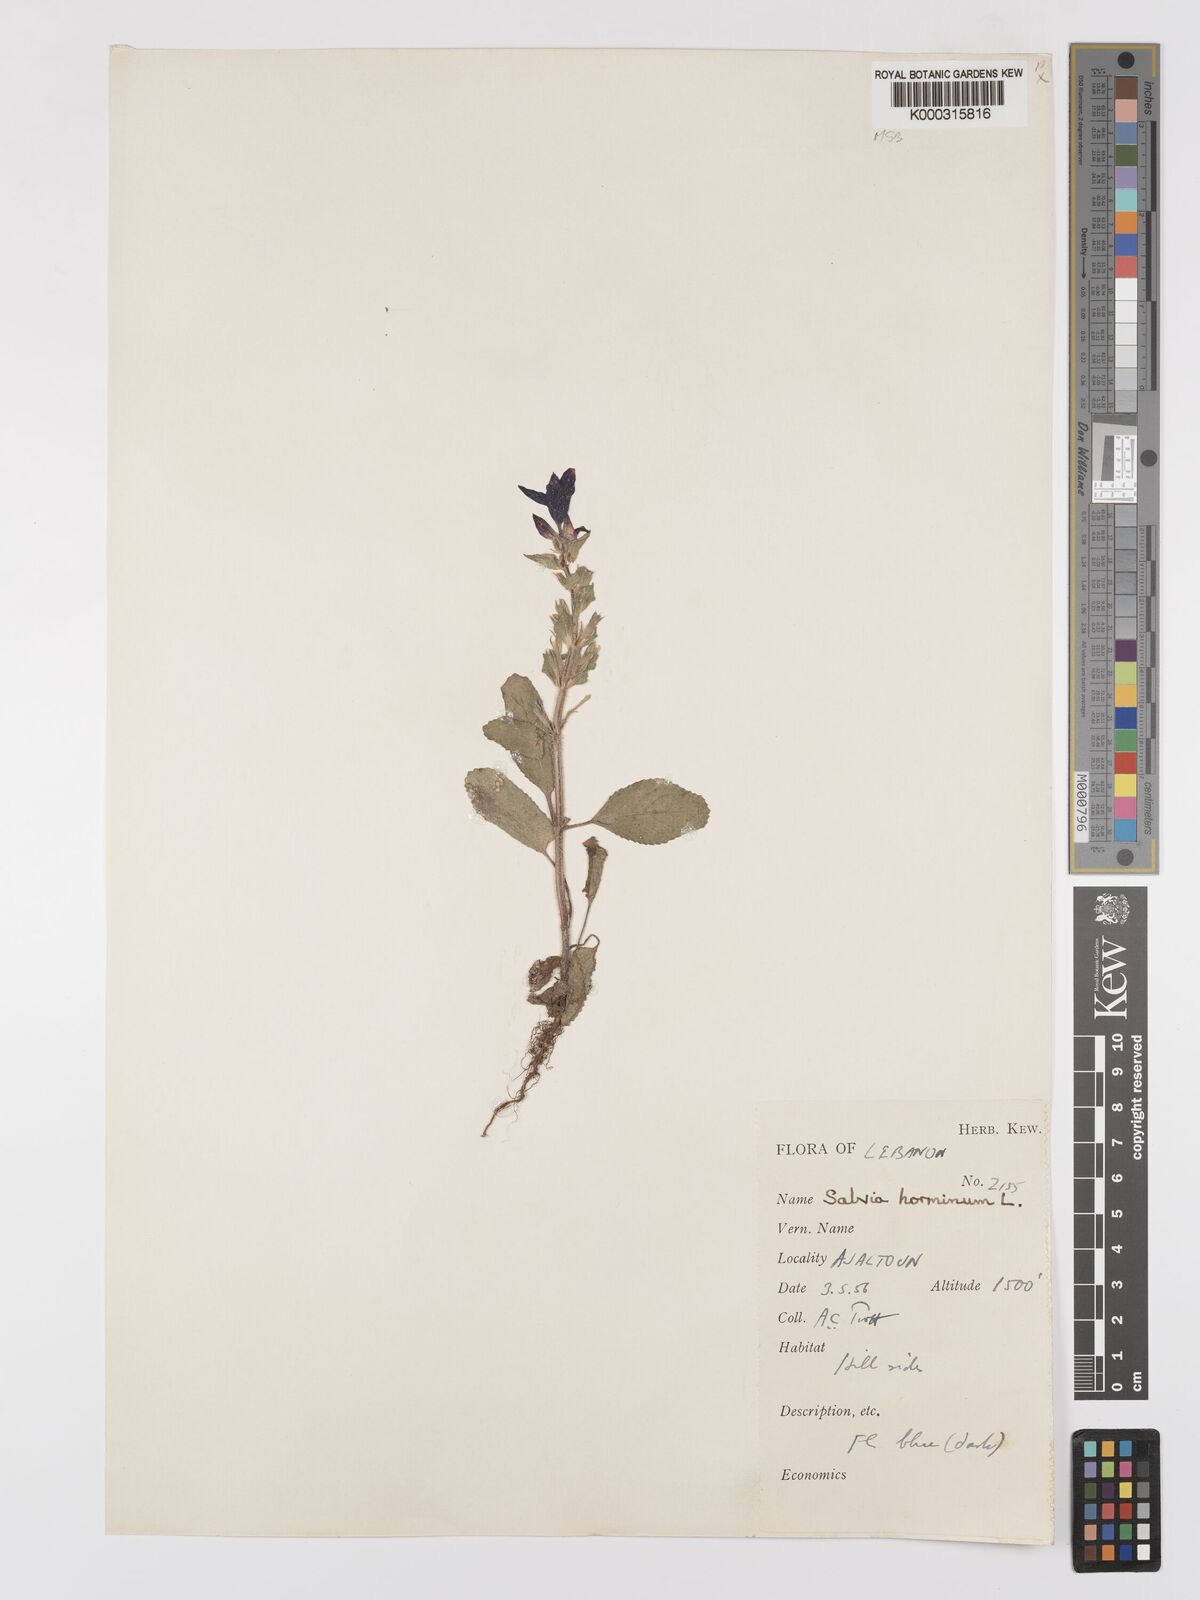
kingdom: Plantae
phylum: Tracheophyta
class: Magnoliopsida
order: Lamiales
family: Lamiaceae
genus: Salvia
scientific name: Salvia viridis
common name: Annual clary
